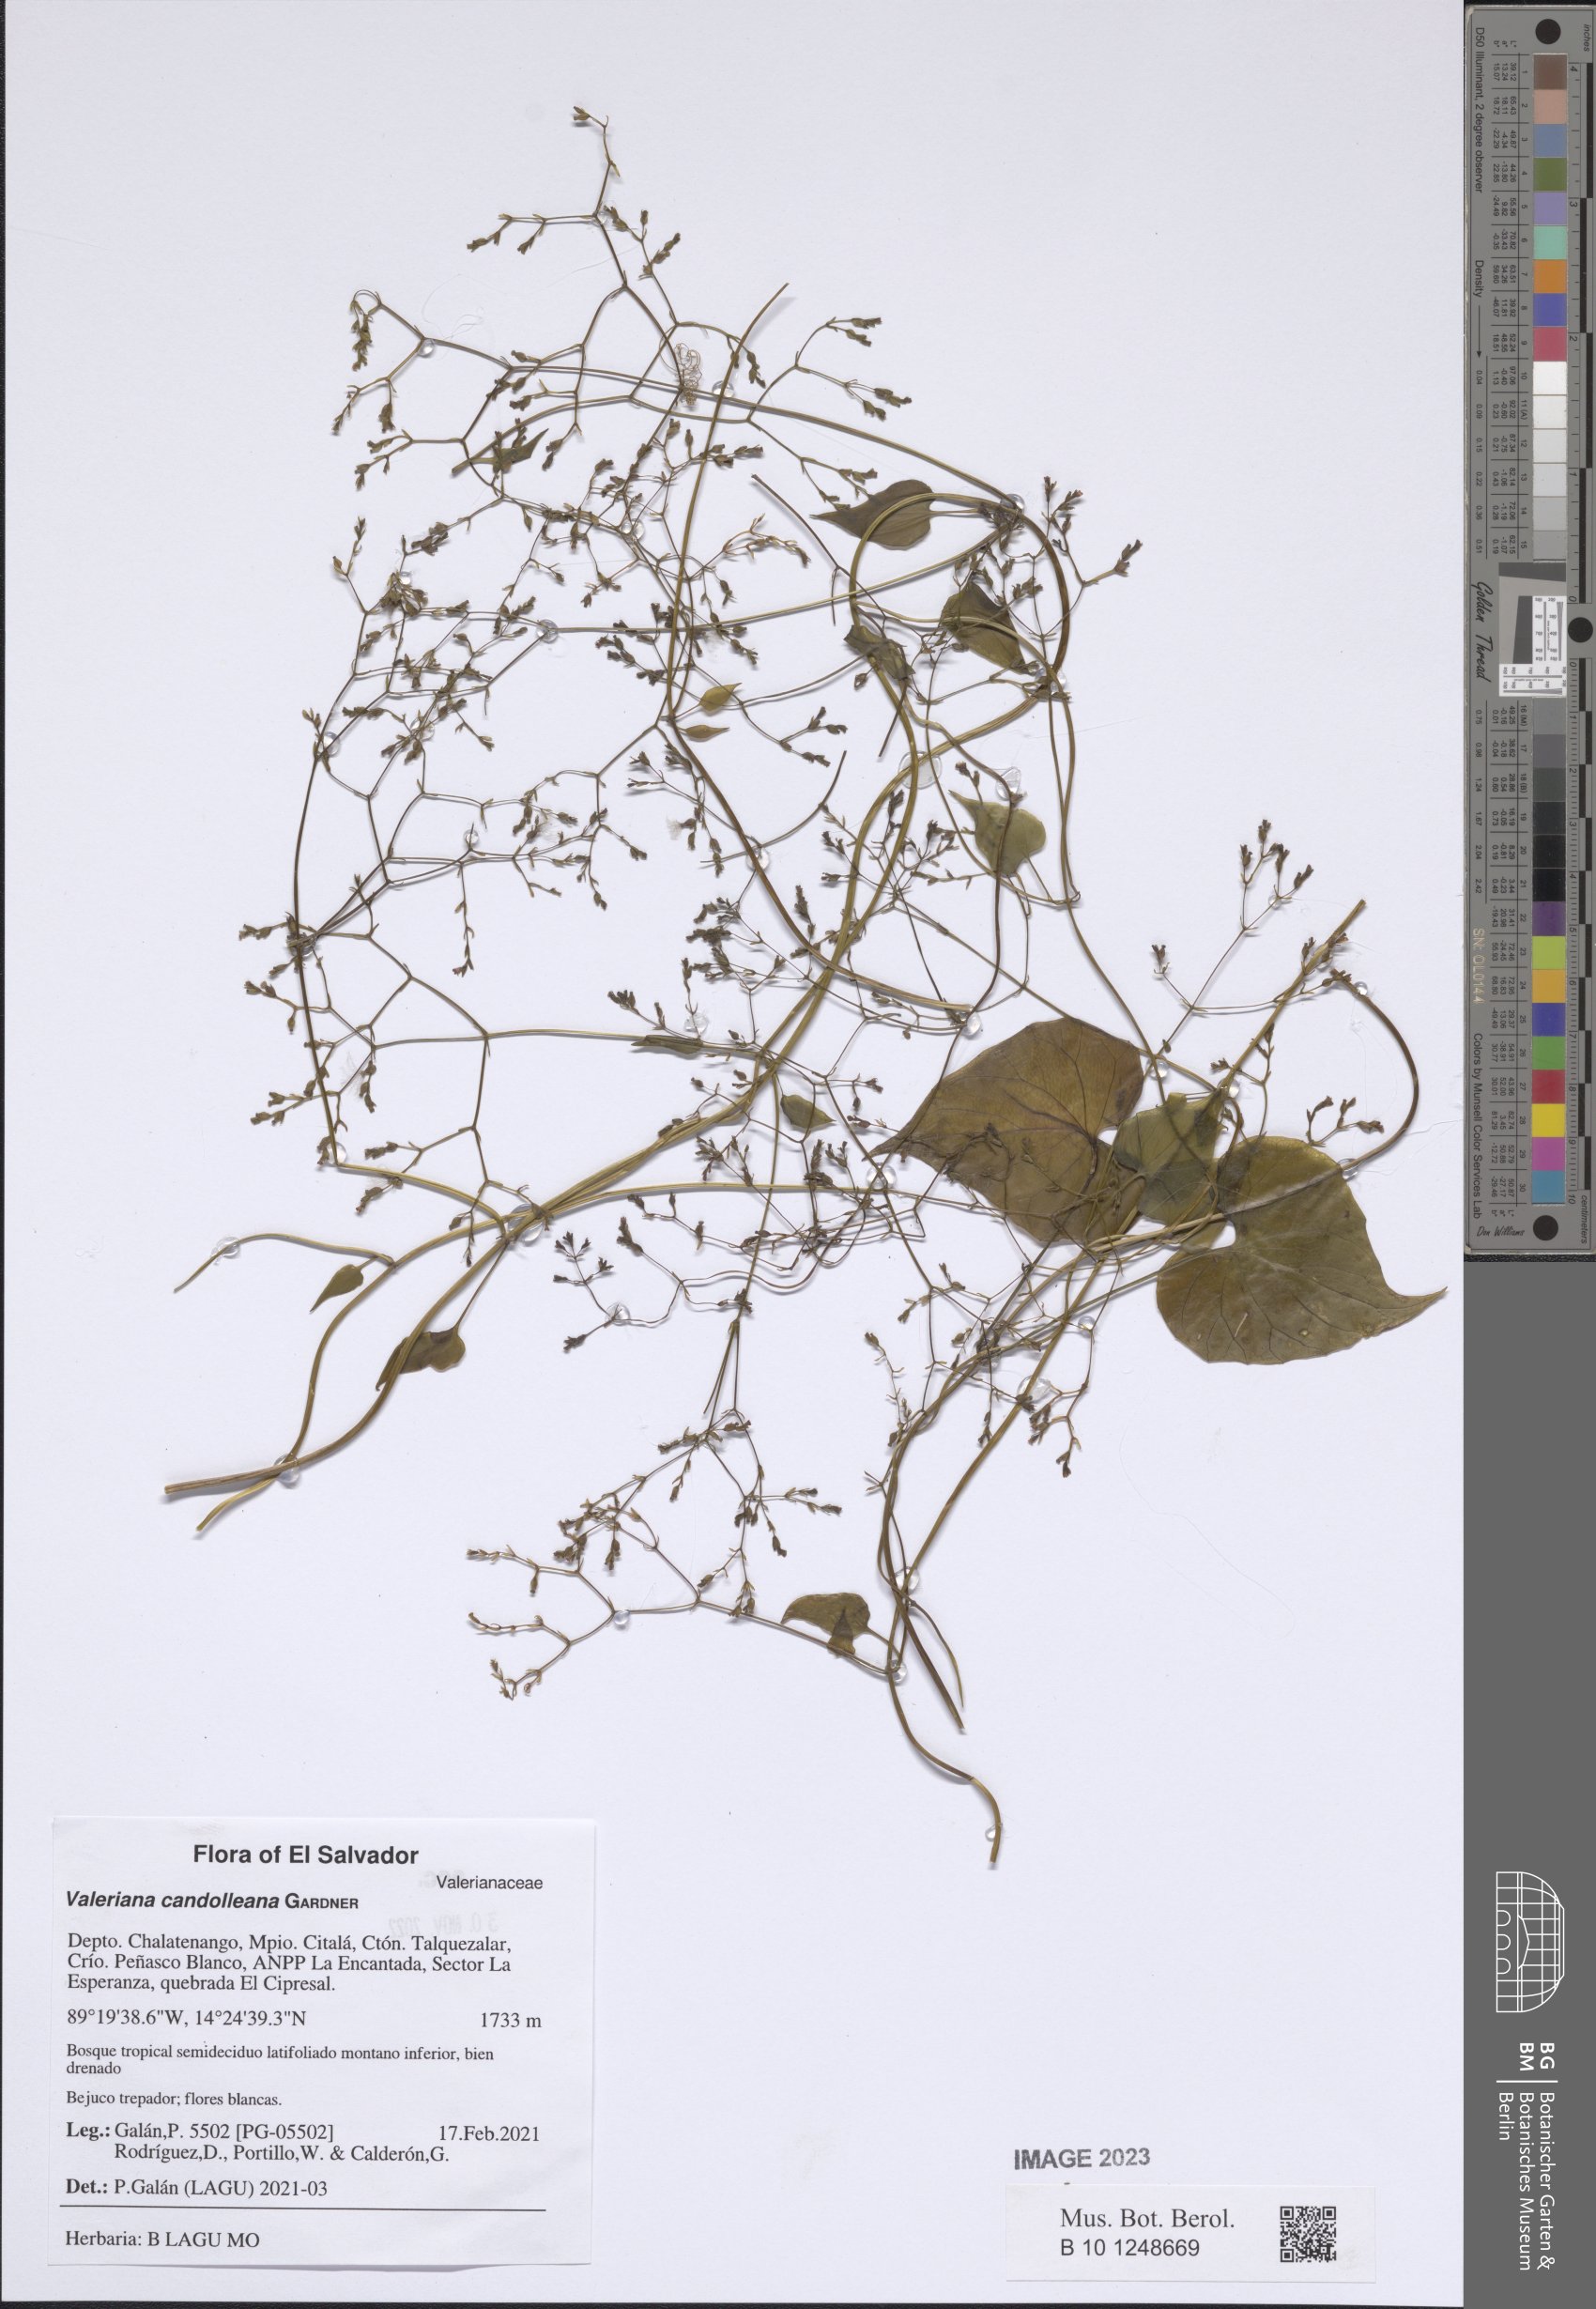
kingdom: Plantae
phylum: Tracheophyta
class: Magnoliopsida
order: Dipsacales
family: Caprifoliaceae
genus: Valeriana
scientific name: Valeriana candolleana
